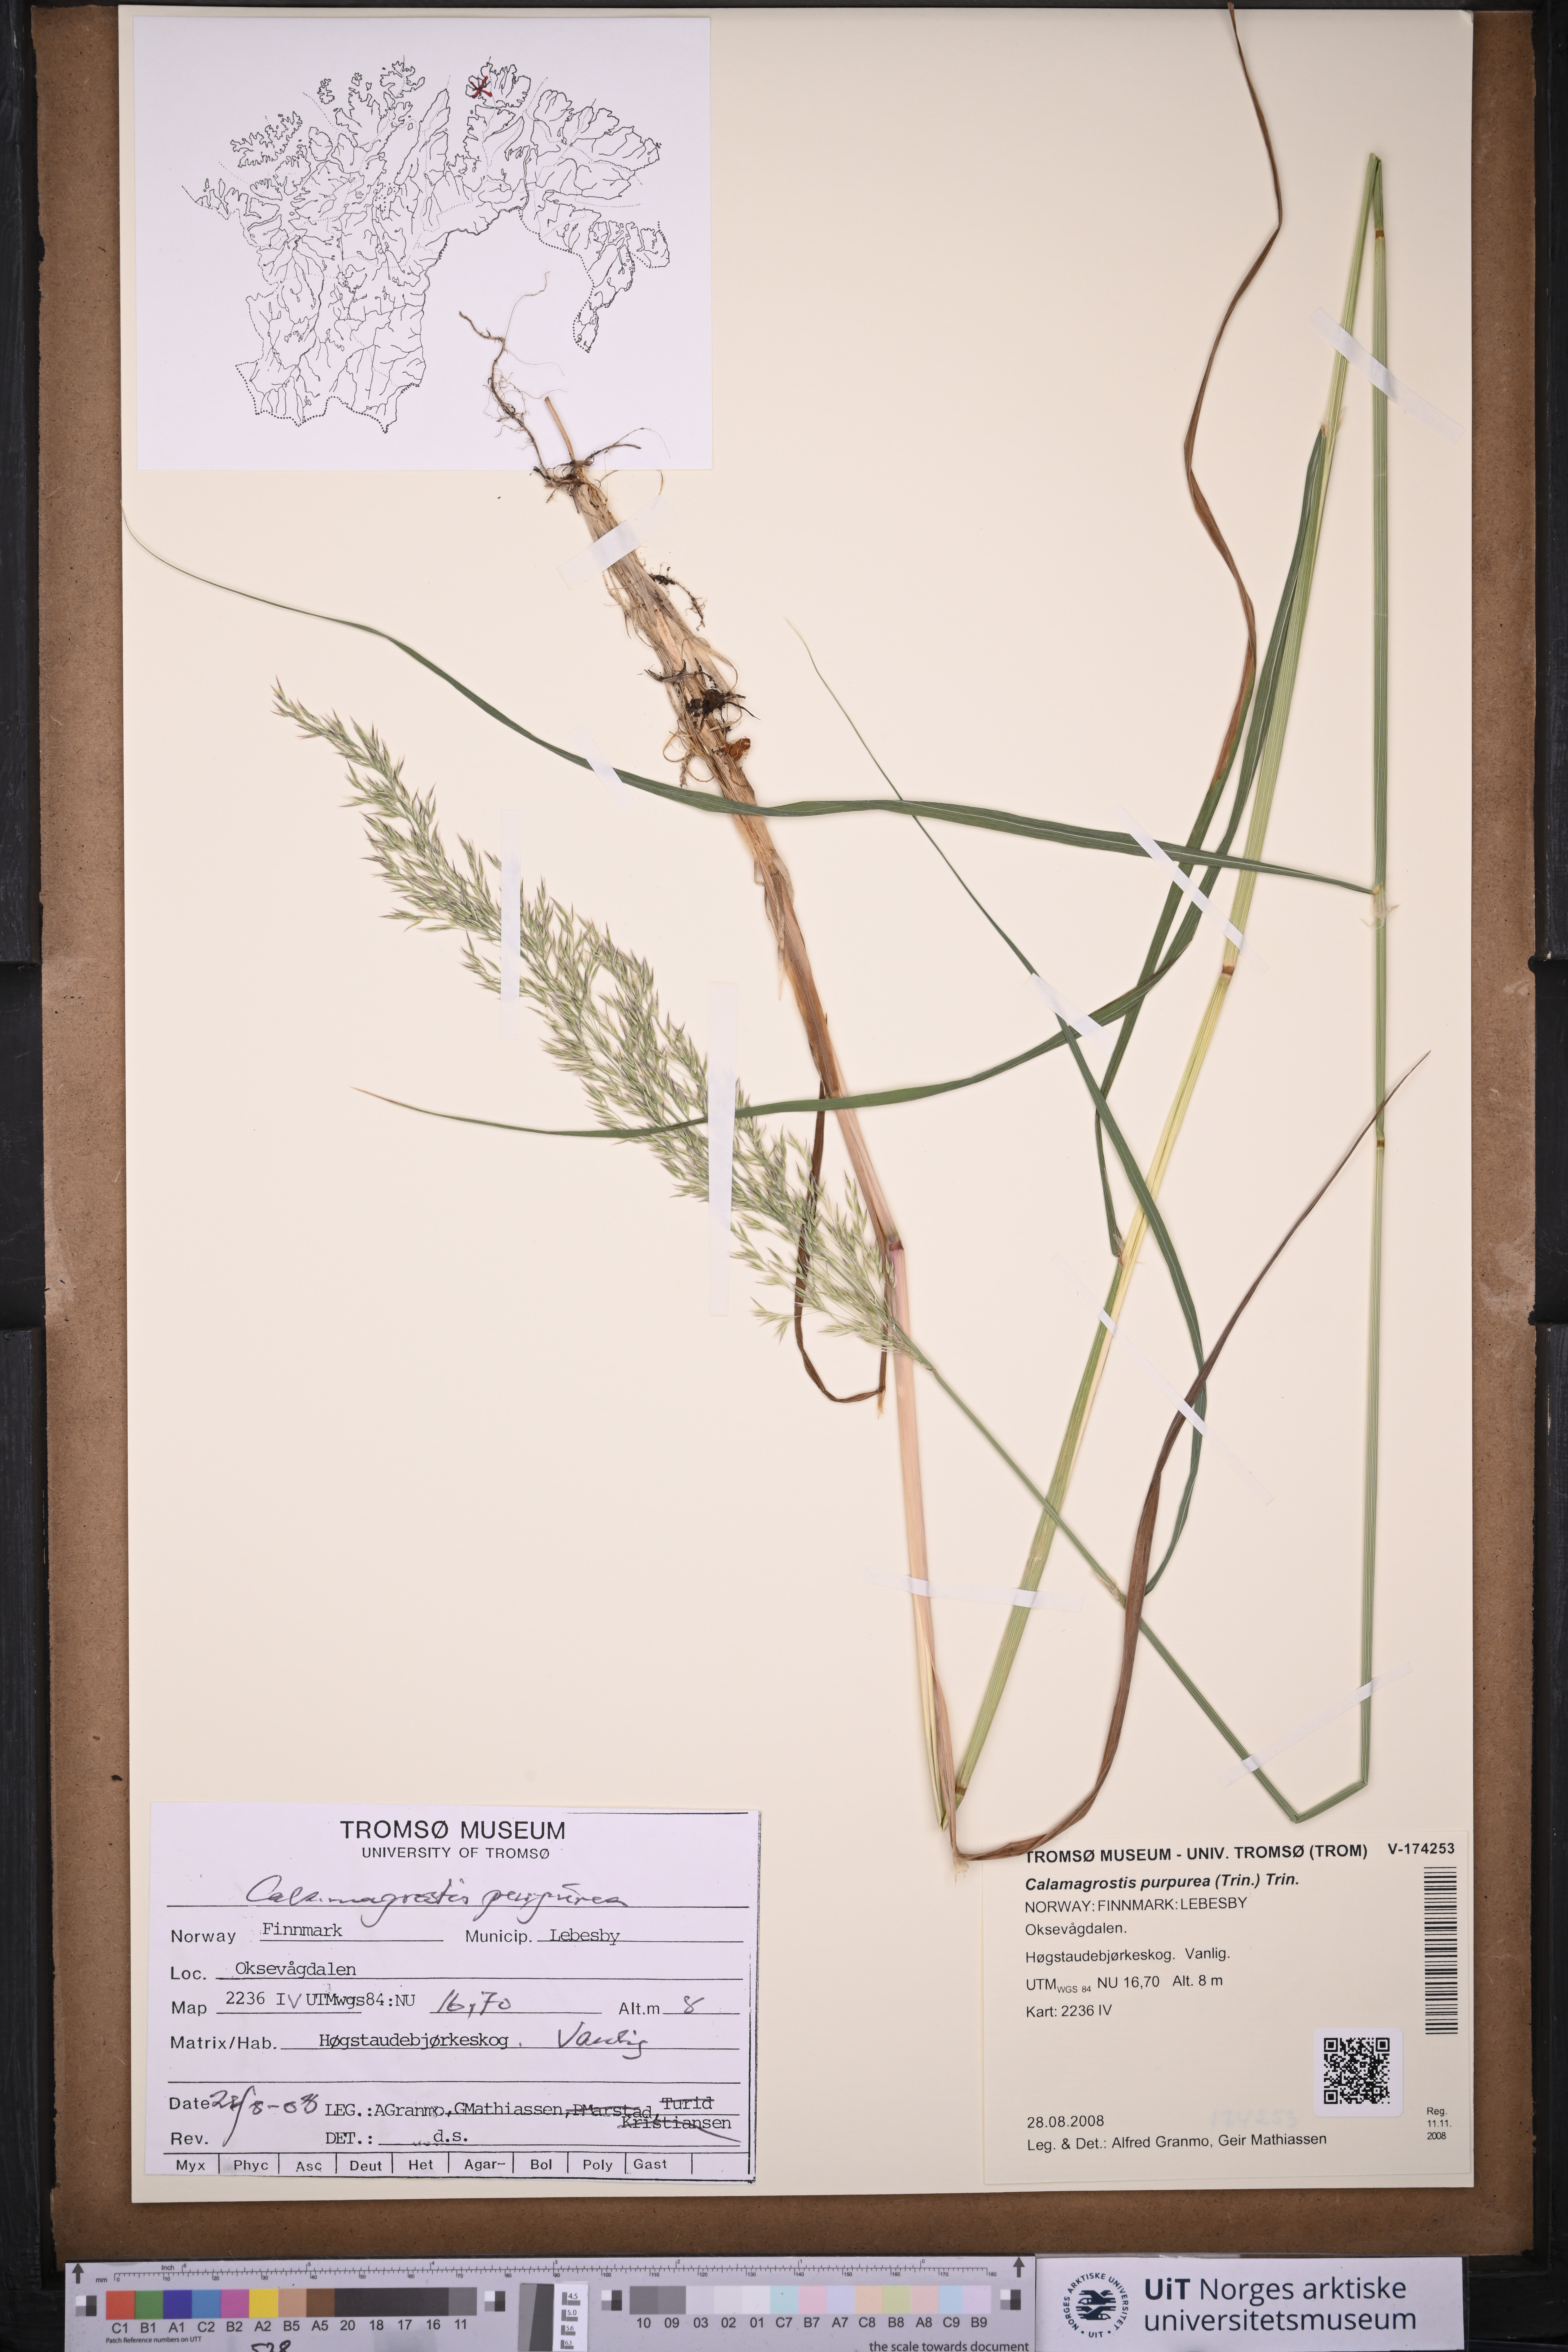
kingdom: Plantae
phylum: Tracheophyta
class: Liliopsida
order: Poales
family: Poaceae
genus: Calamagrostis
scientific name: Calamagrostis purpurea
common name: Scandinavian small-reed
